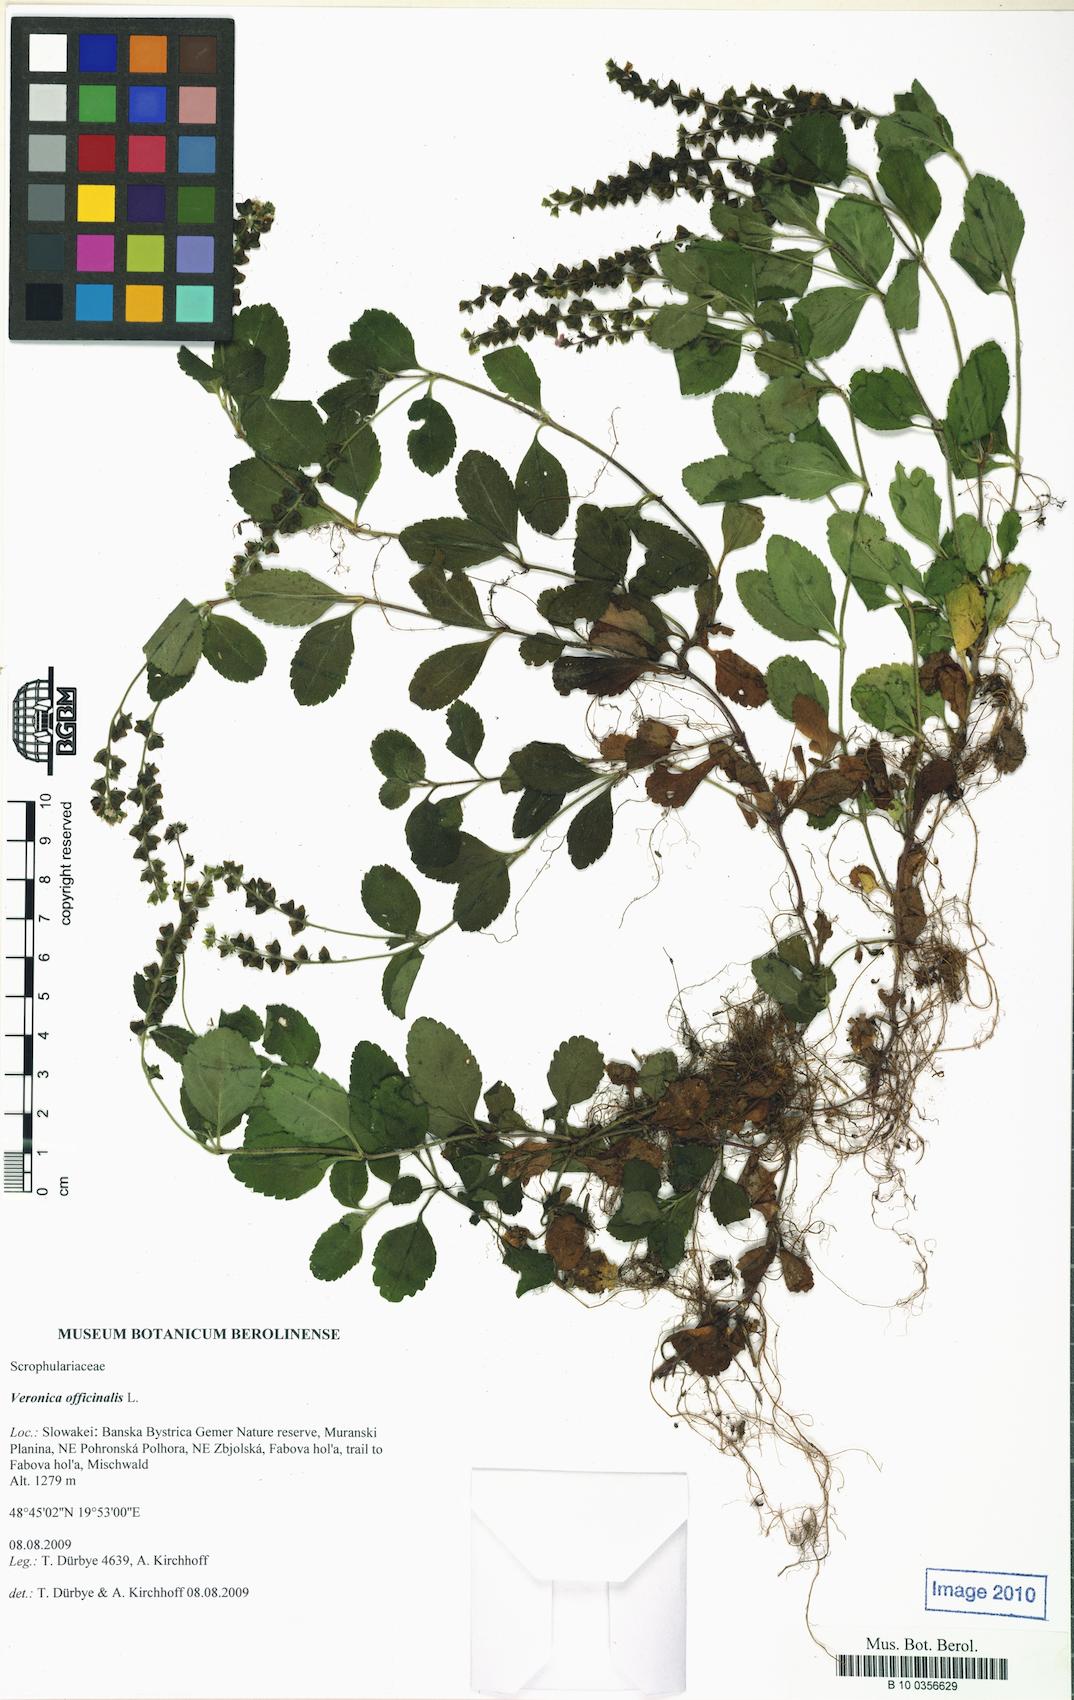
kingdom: Plantae
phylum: Tracheophyta
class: Magnoliopsida
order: Lamiales
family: Plantaginaceae
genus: Veronica
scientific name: Veronica officinalis
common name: Common speedwell
